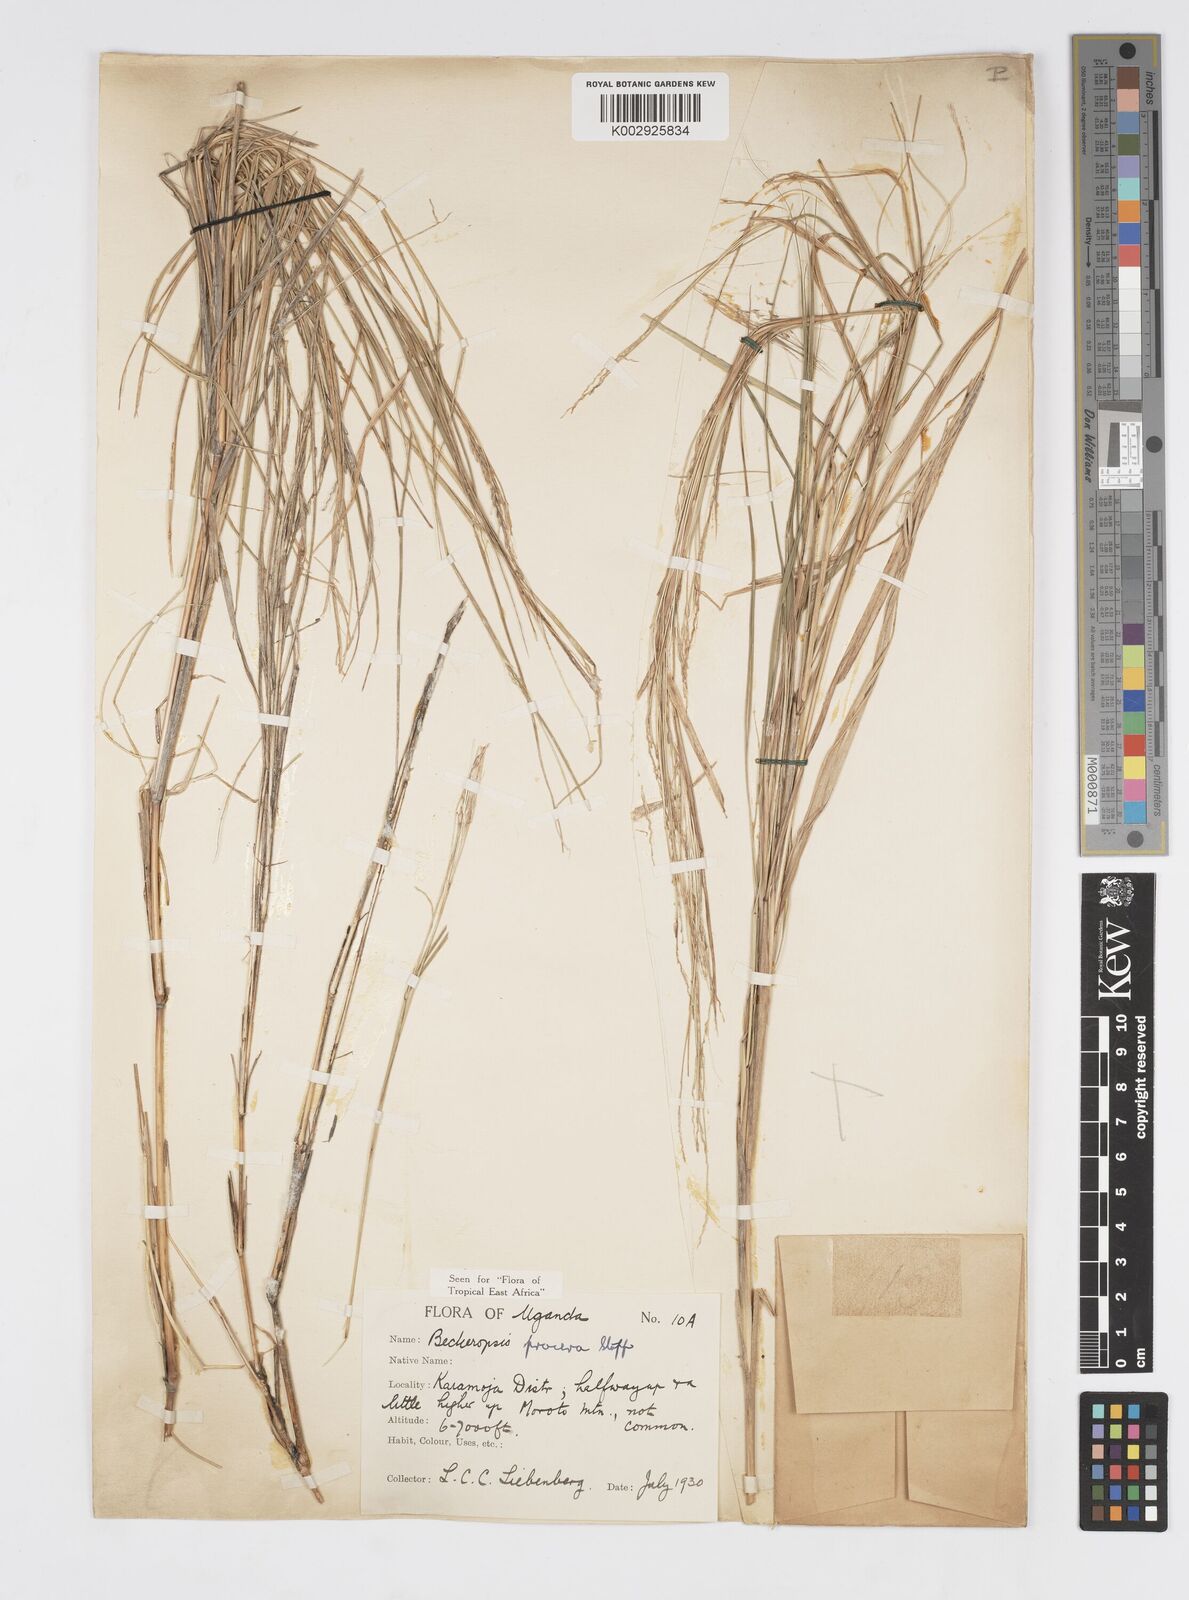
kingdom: Plantae
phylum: Tracheophyta
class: Liliopsida
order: Poales
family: Poaceae
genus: Cenchrus
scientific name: Cenchrus procerus
